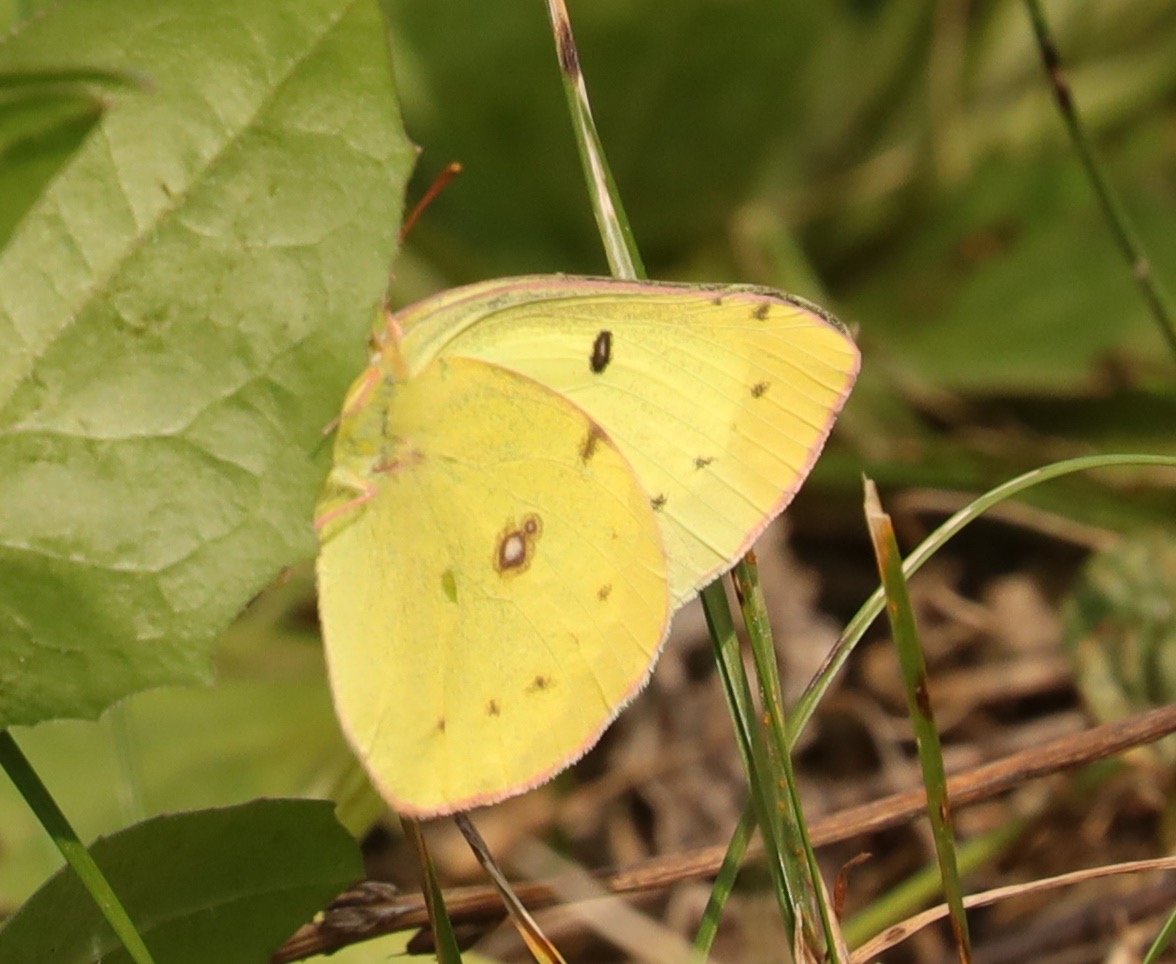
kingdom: Animalia
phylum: Arthropoda
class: Insecta
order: Lepidoptera
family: Pieridae
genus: Colias
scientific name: Colias philodice
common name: Clouded Sulphur
